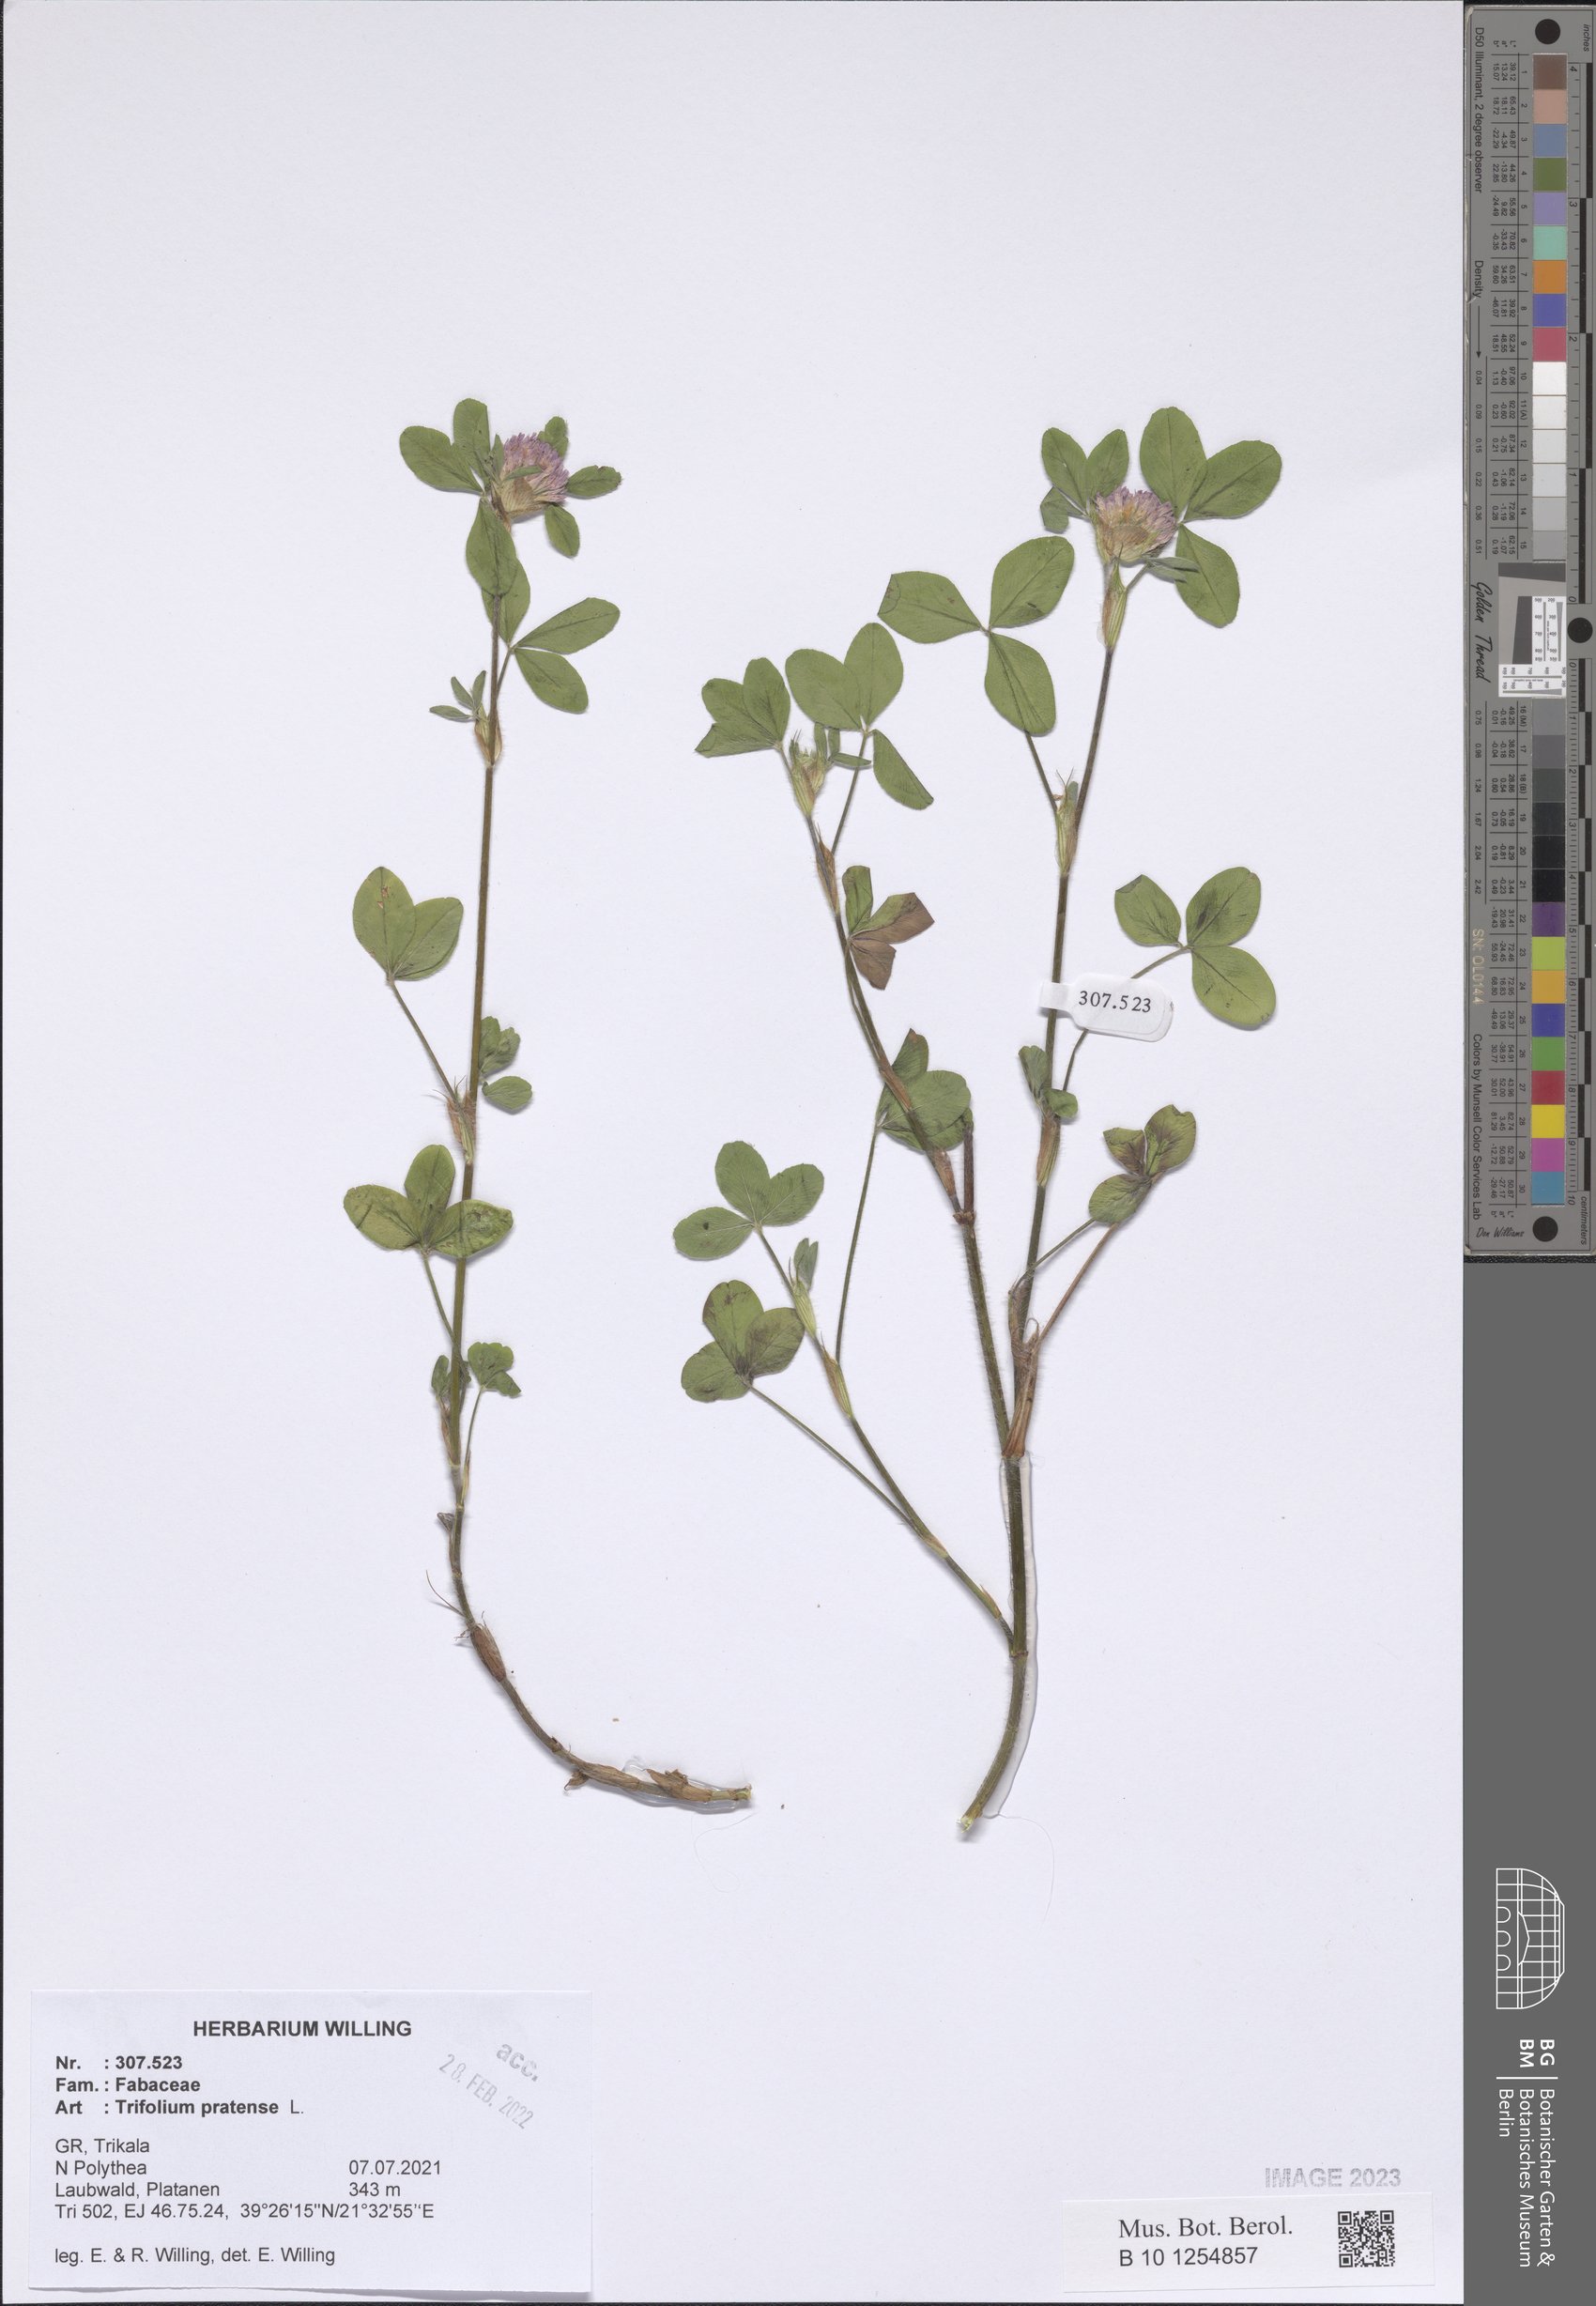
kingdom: Plantae
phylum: Tracheophyta
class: Magnoliopsida
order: Fabales
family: Fabaceae
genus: Trifolium
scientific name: Trifolium pratense
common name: Red clover
